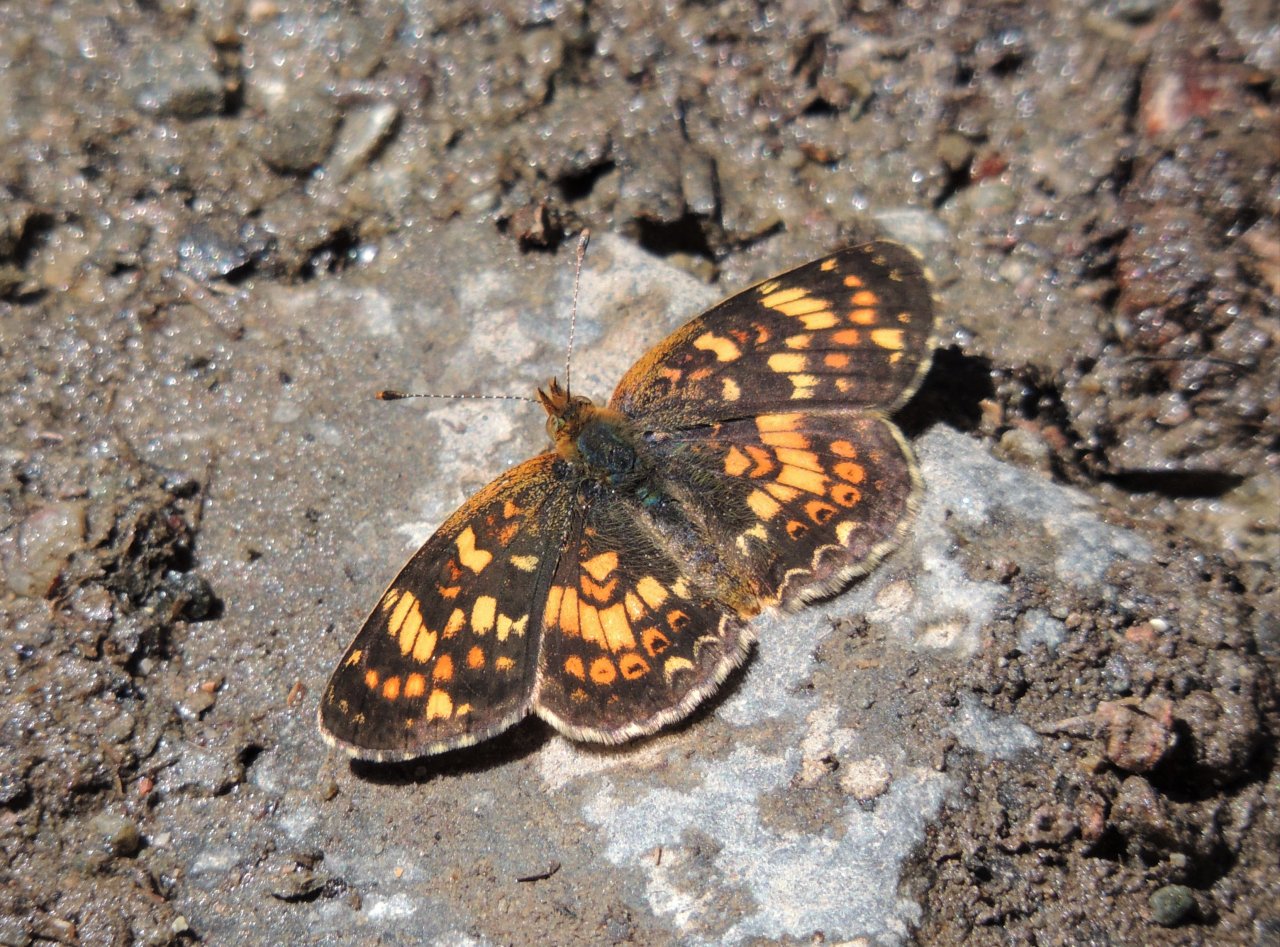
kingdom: Animalia
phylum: Arthropoda
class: Insecta
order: Lepidoptera
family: Nymphalidae
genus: Phyciodes
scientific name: Phyciodes tharos
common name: Field Crescent
